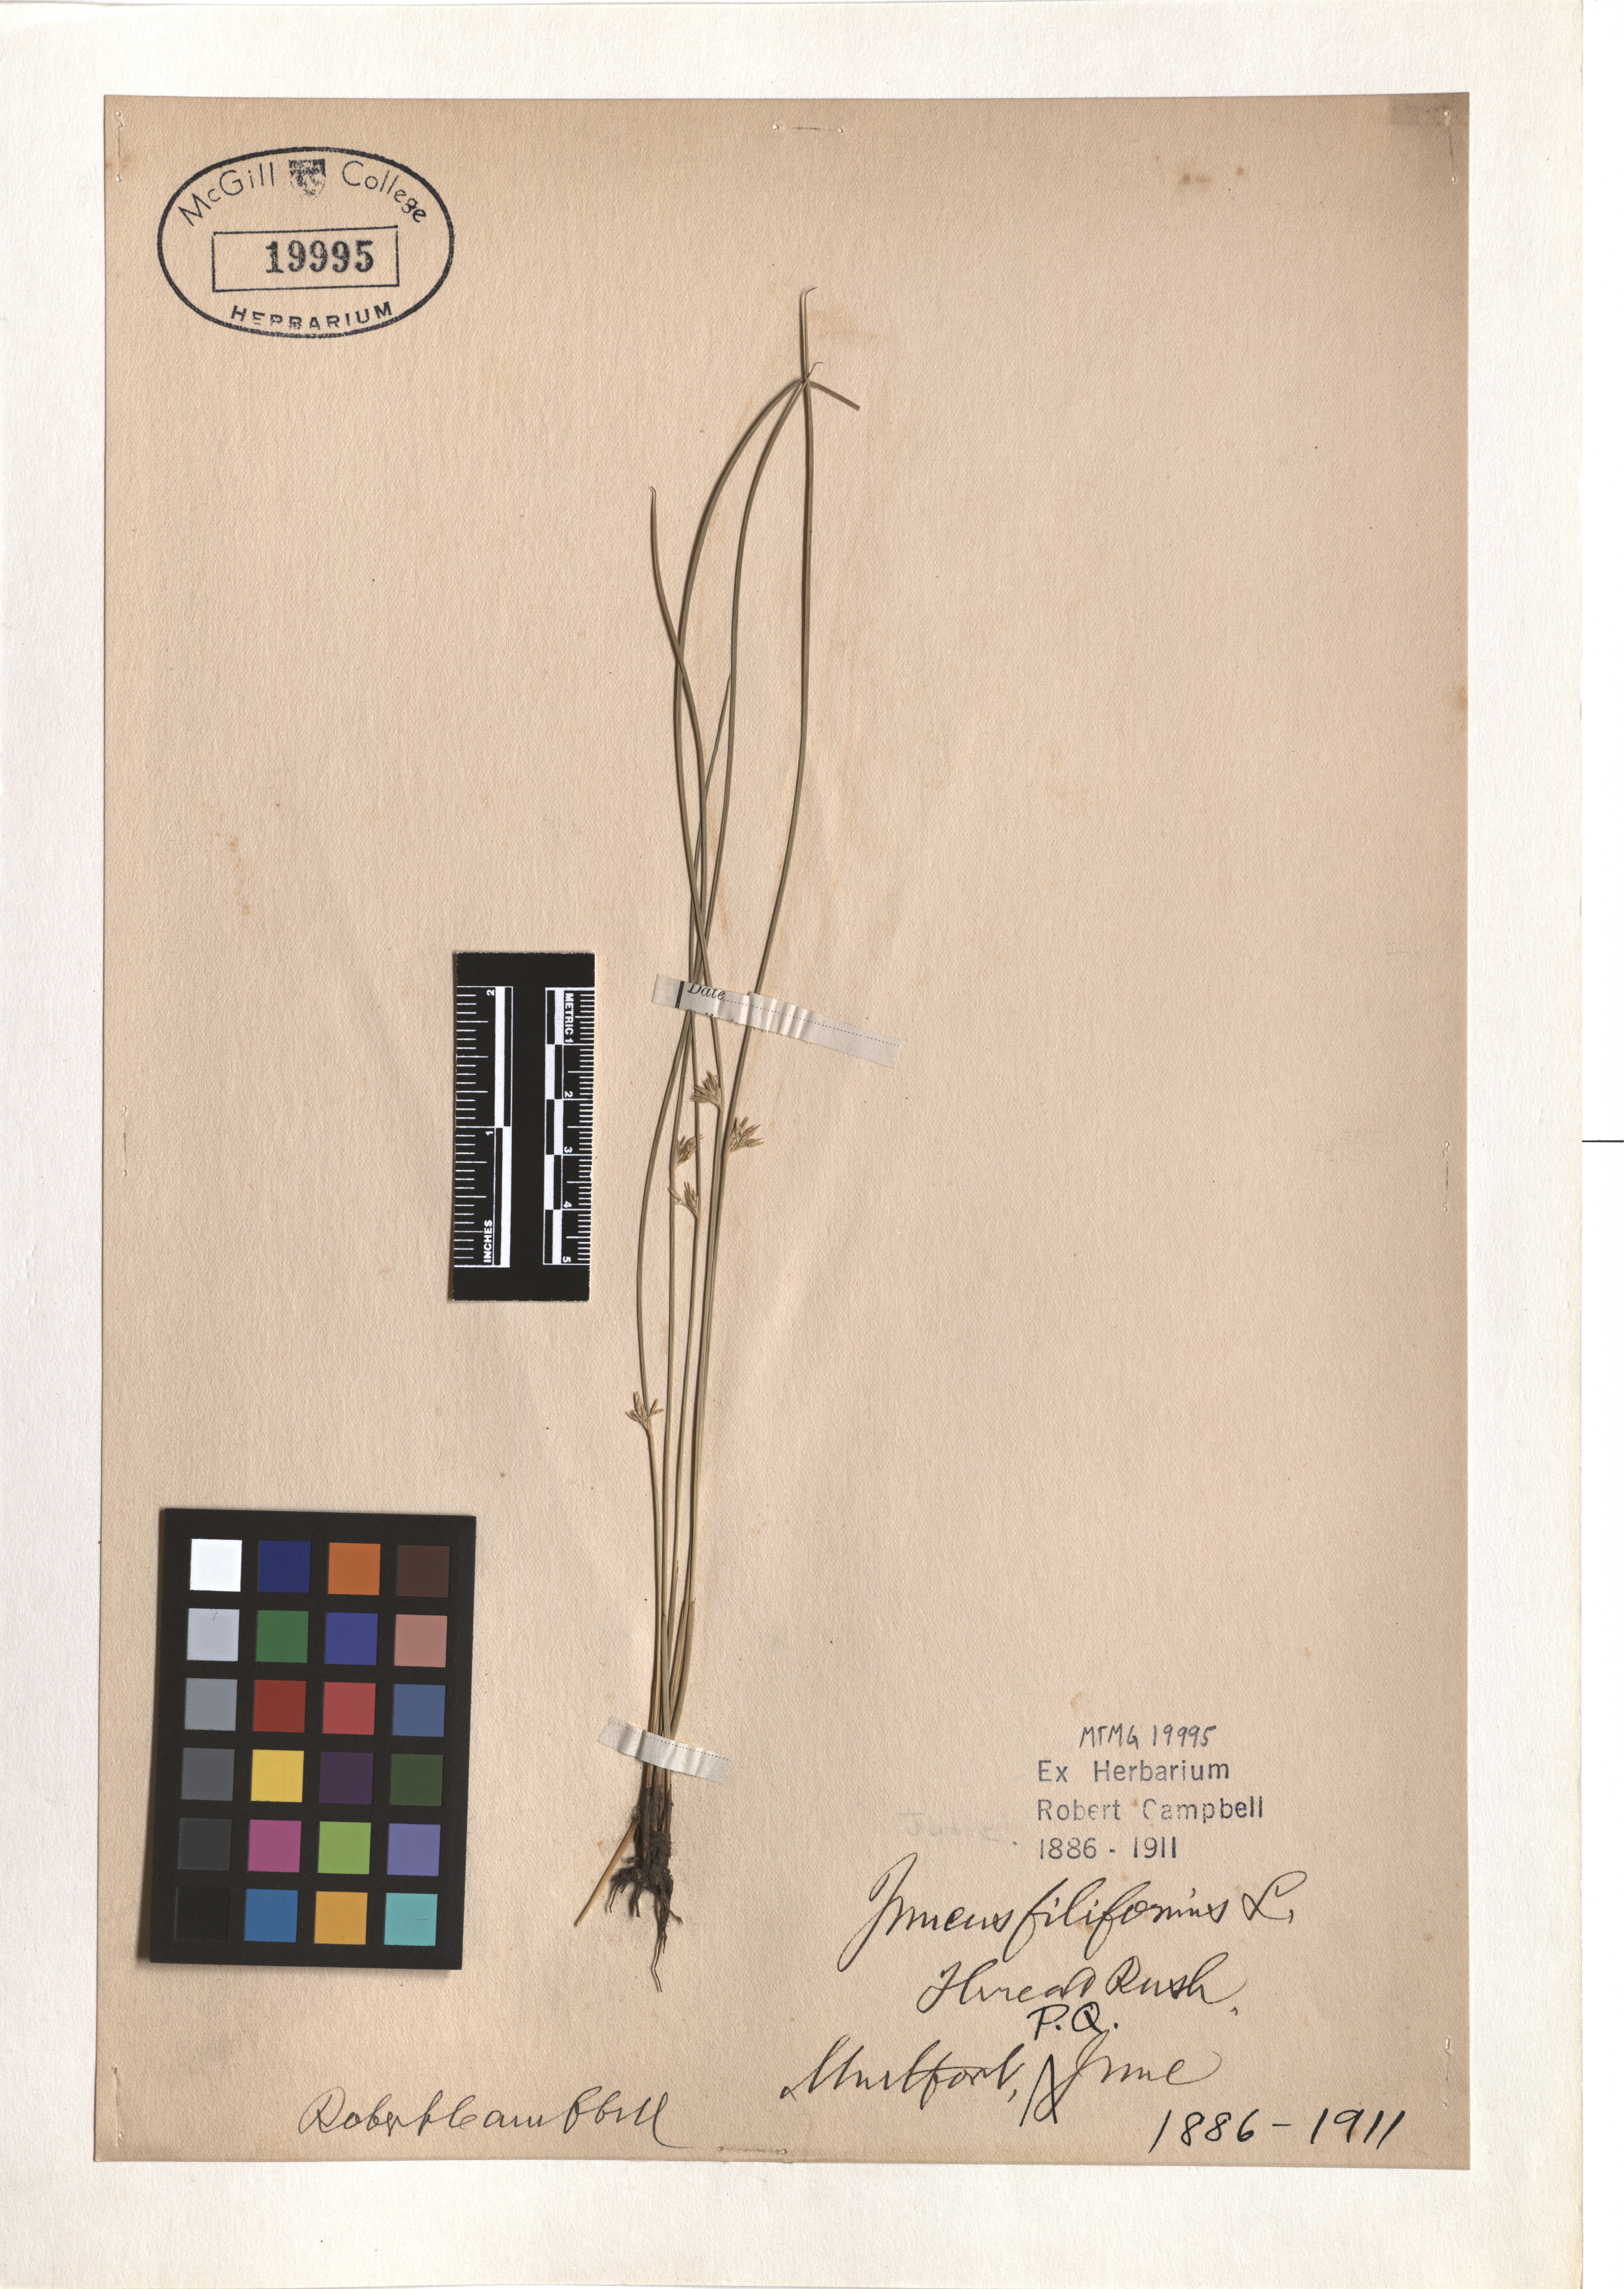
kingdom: Plantae
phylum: Tracheophyta
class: Liliopsida
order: Poales
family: Juncaceae
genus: Juncus
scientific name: Juncus filiformis
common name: Thread rush
